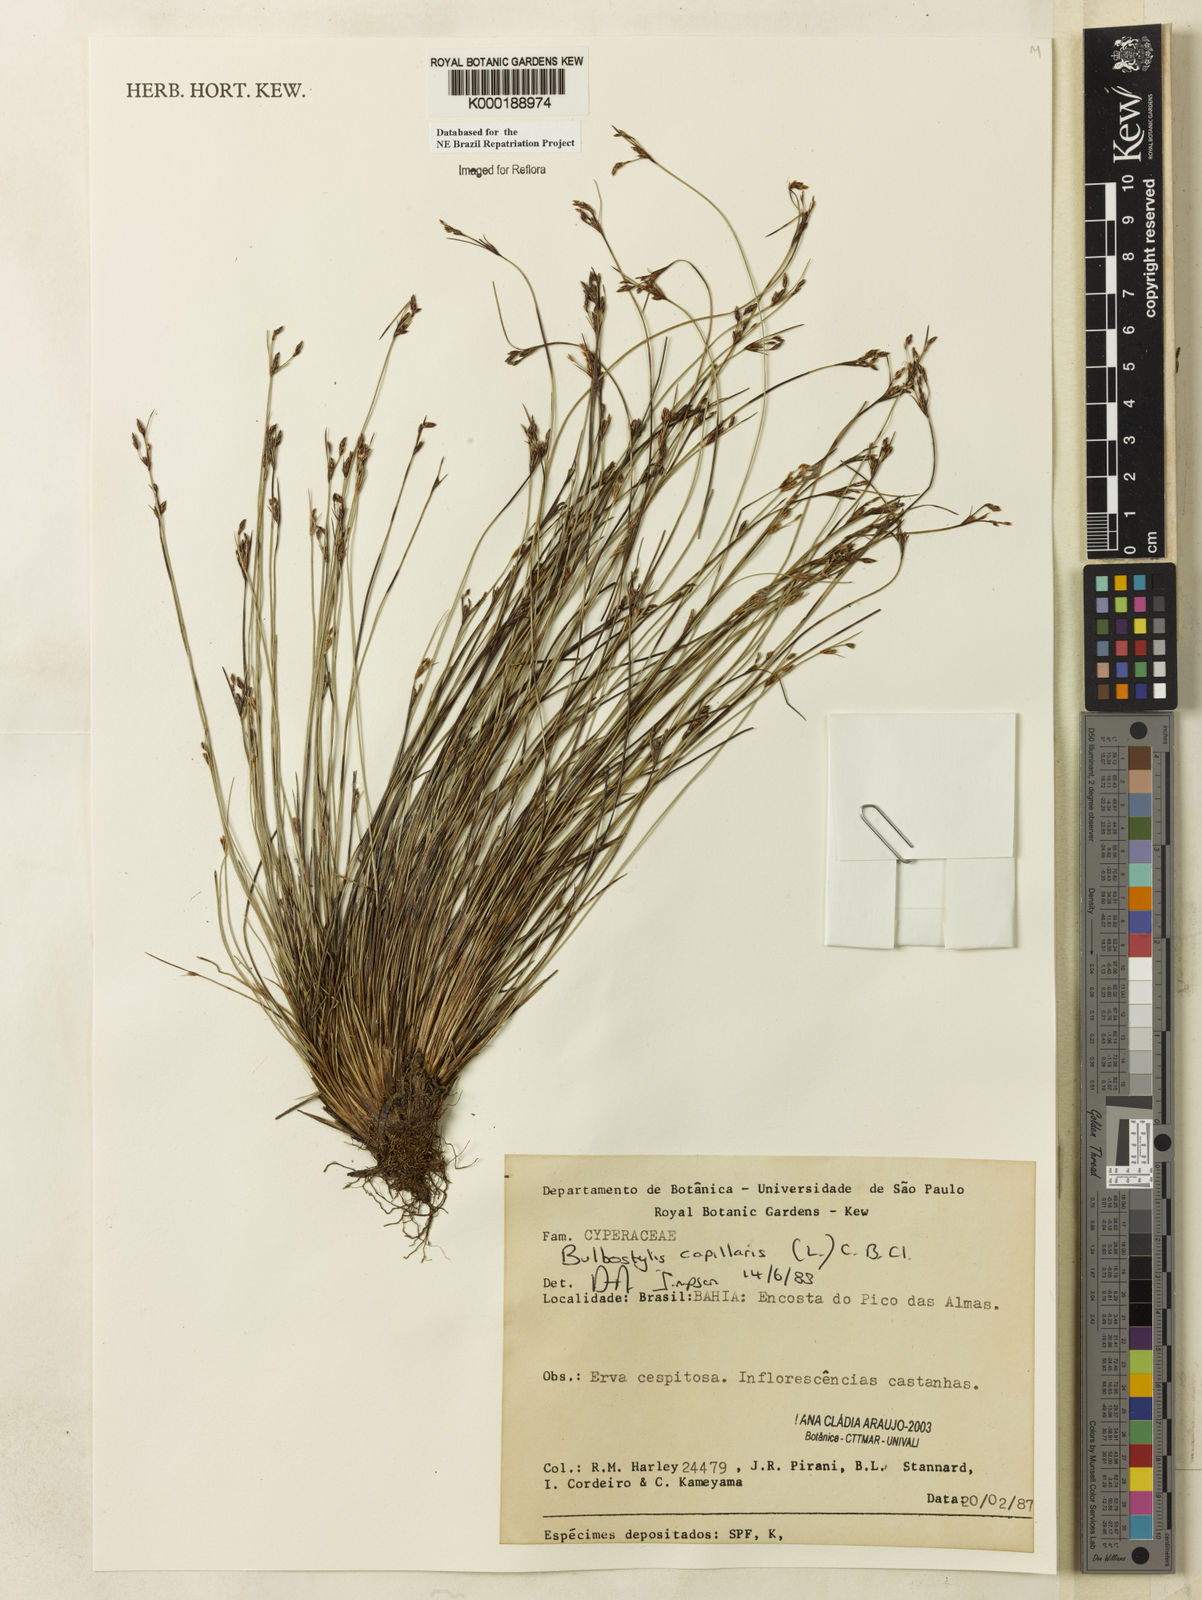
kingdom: Plantae
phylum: Tracheophyta
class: Liliopsida
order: Poales
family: Cyperaceae
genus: Bulbostylis
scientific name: Bulbostylis capillaris
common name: Densetuft hairsedge
